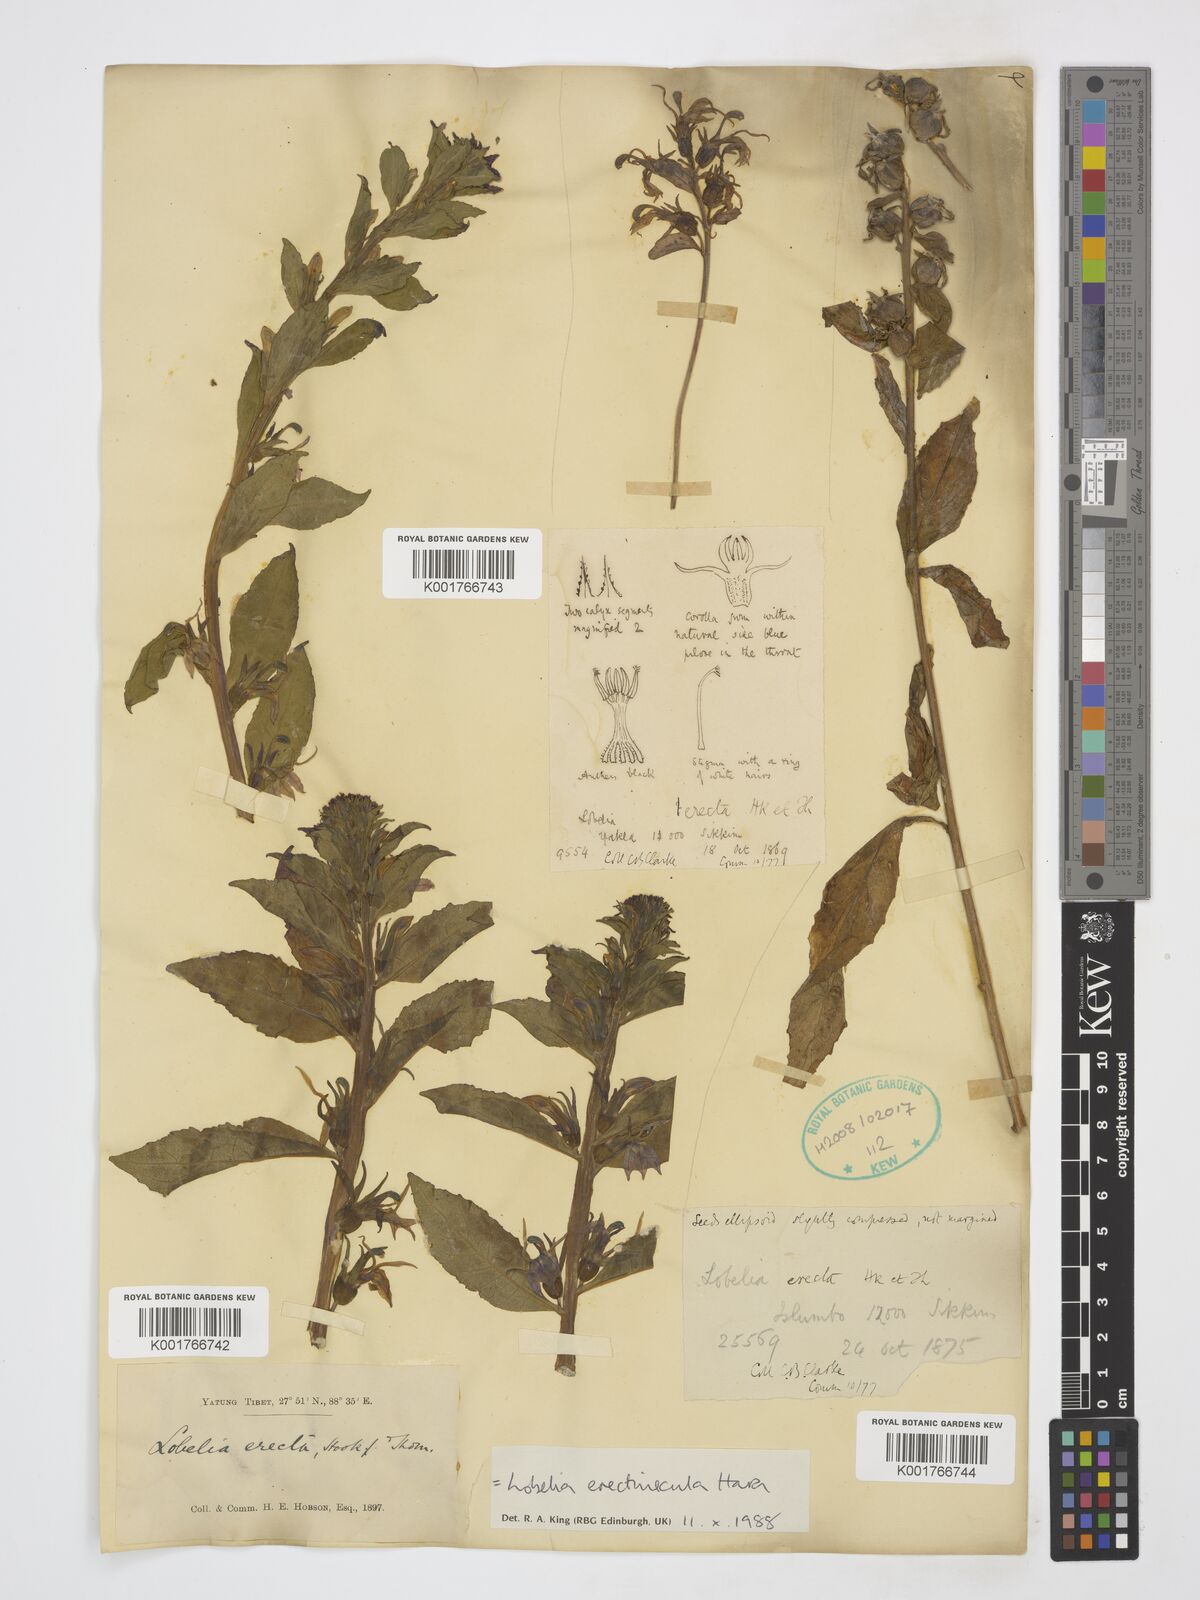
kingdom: Plantae
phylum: Tracheophyta
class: Magnoliopsida
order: Asterales
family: Campanulaceae
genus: Lobelia
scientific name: Lobelia erectiuscula
